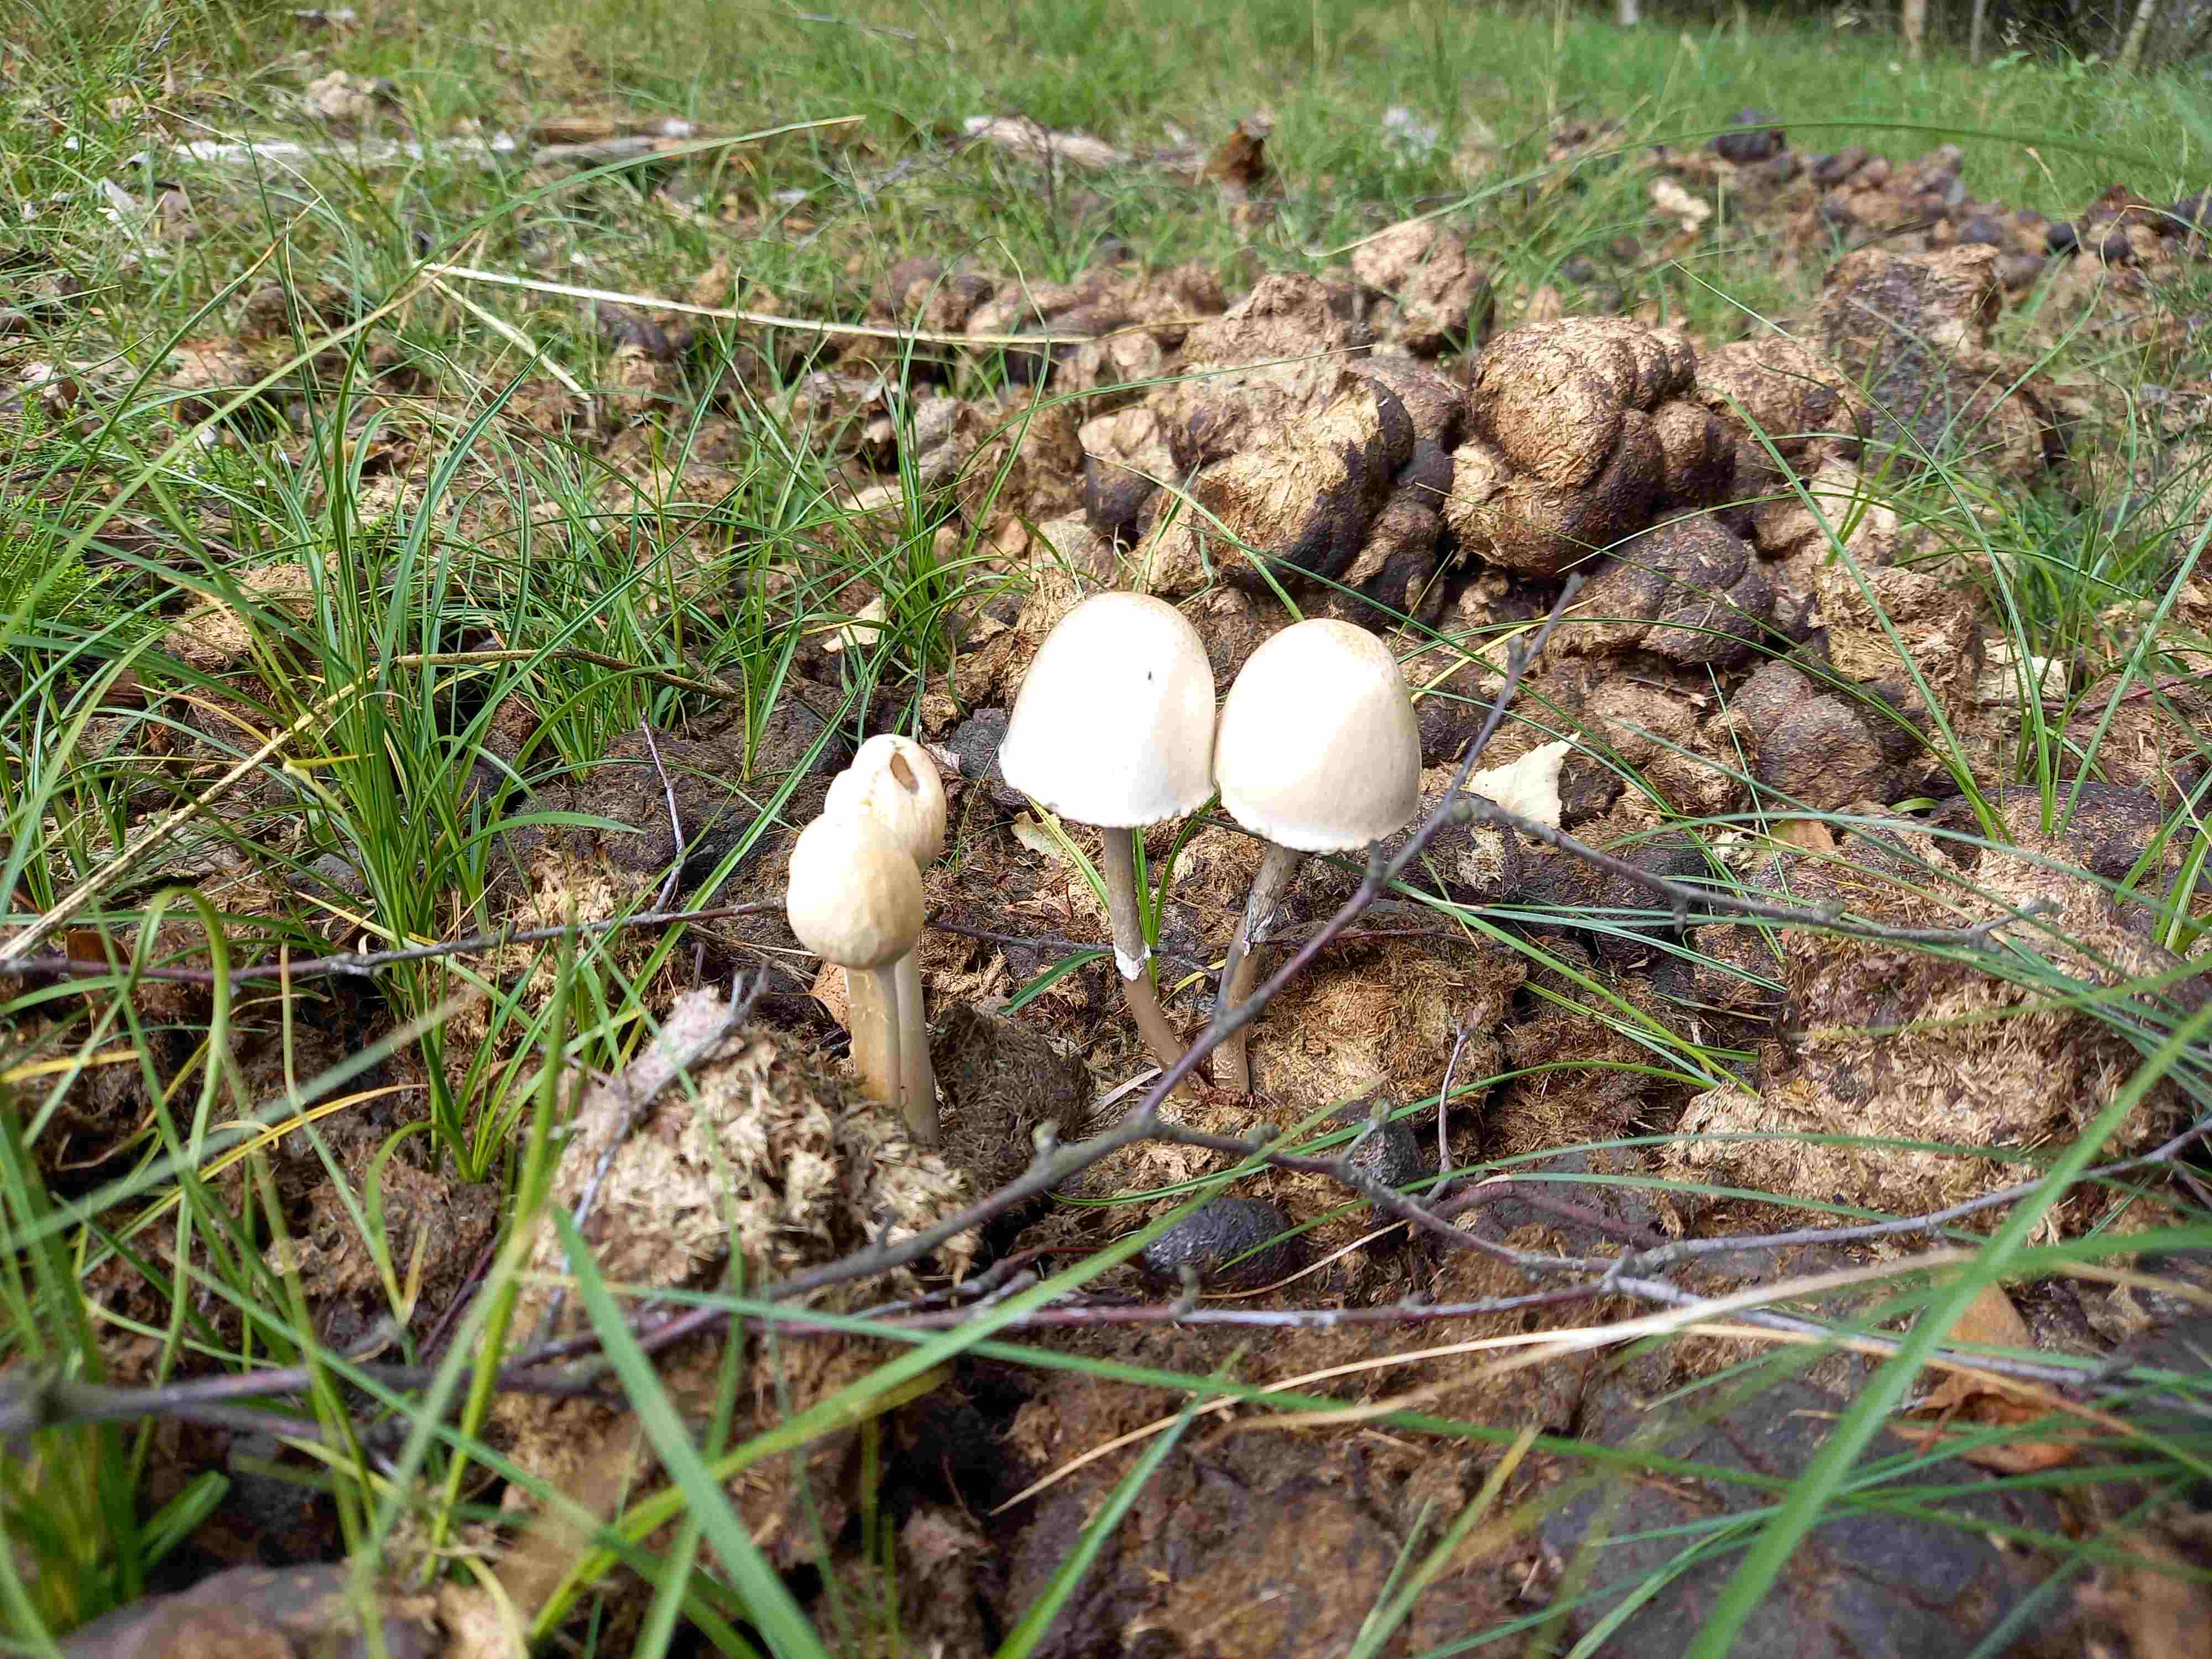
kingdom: Fungi
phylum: Basidiomycota
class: Agaricomycetes
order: Agaricales
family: Bolbitiaceae
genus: Panaeolus
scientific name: Panaeolus semiovatus
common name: ring-glanshat
